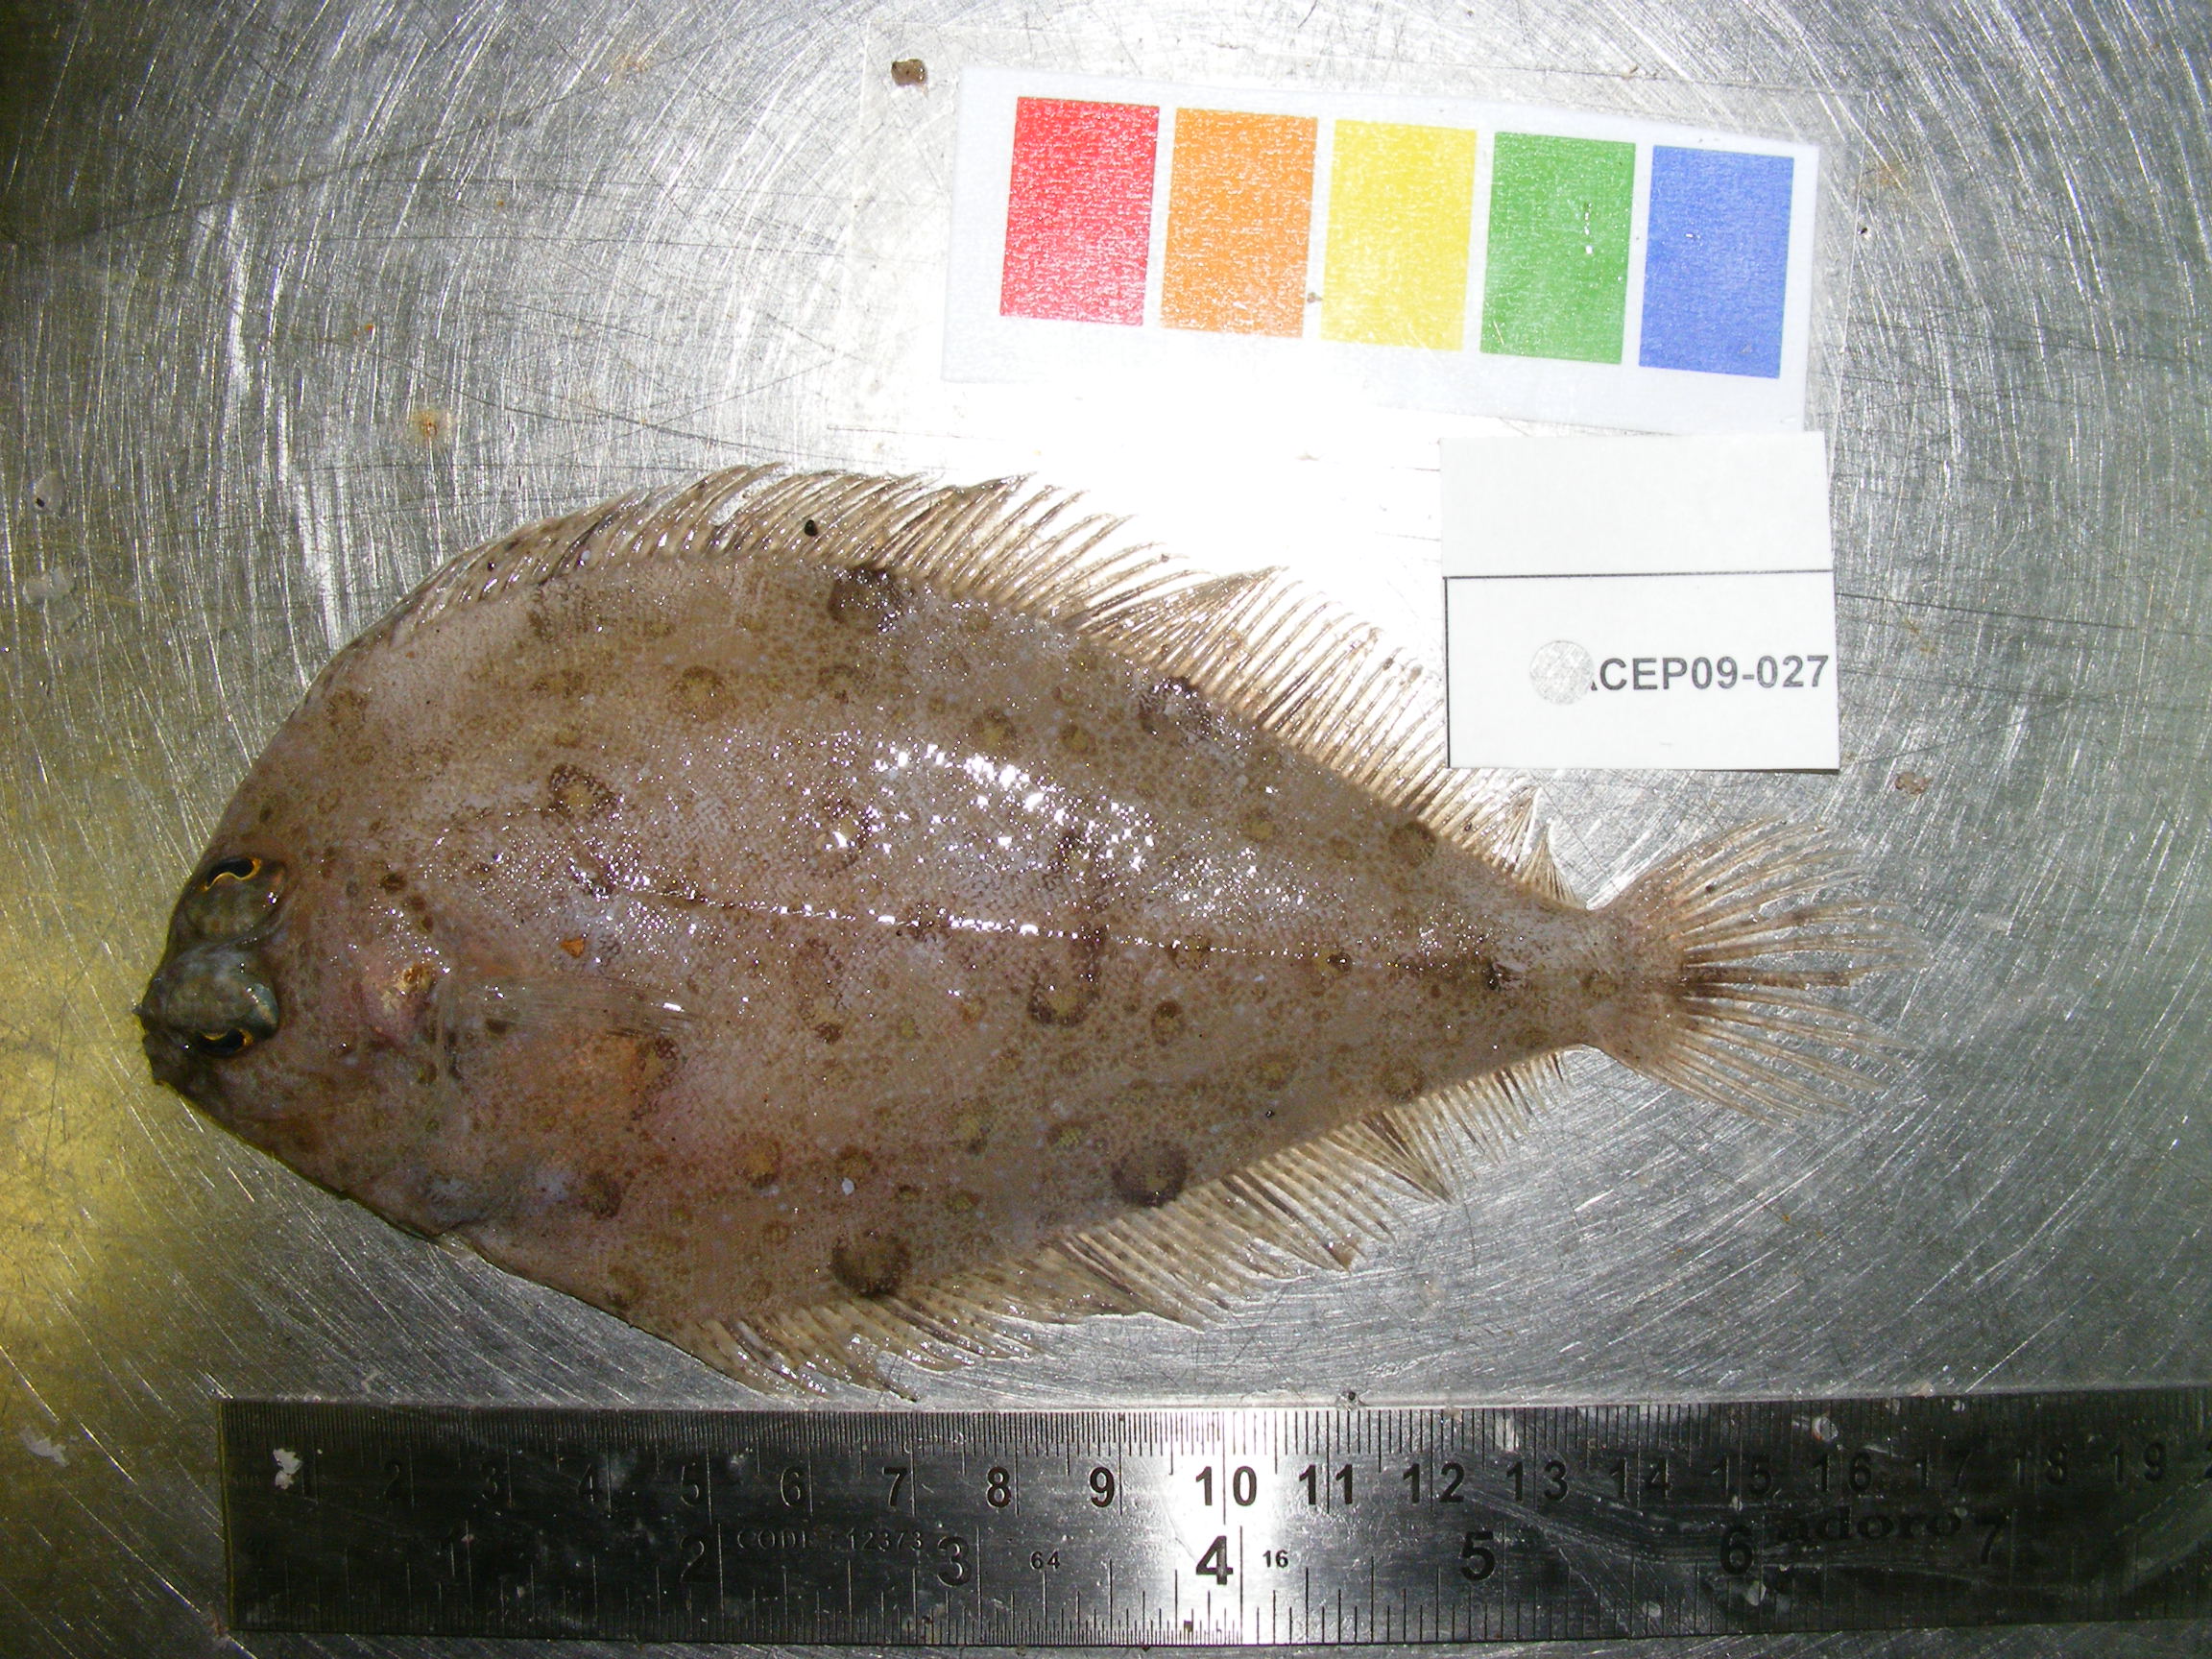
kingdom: Animalia
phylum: Chordata
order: Pleuronectiformes
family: Paralichthyidae
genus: Pseudorhombus
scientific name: Pseudorhombus natalensis
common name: Natal flounder
